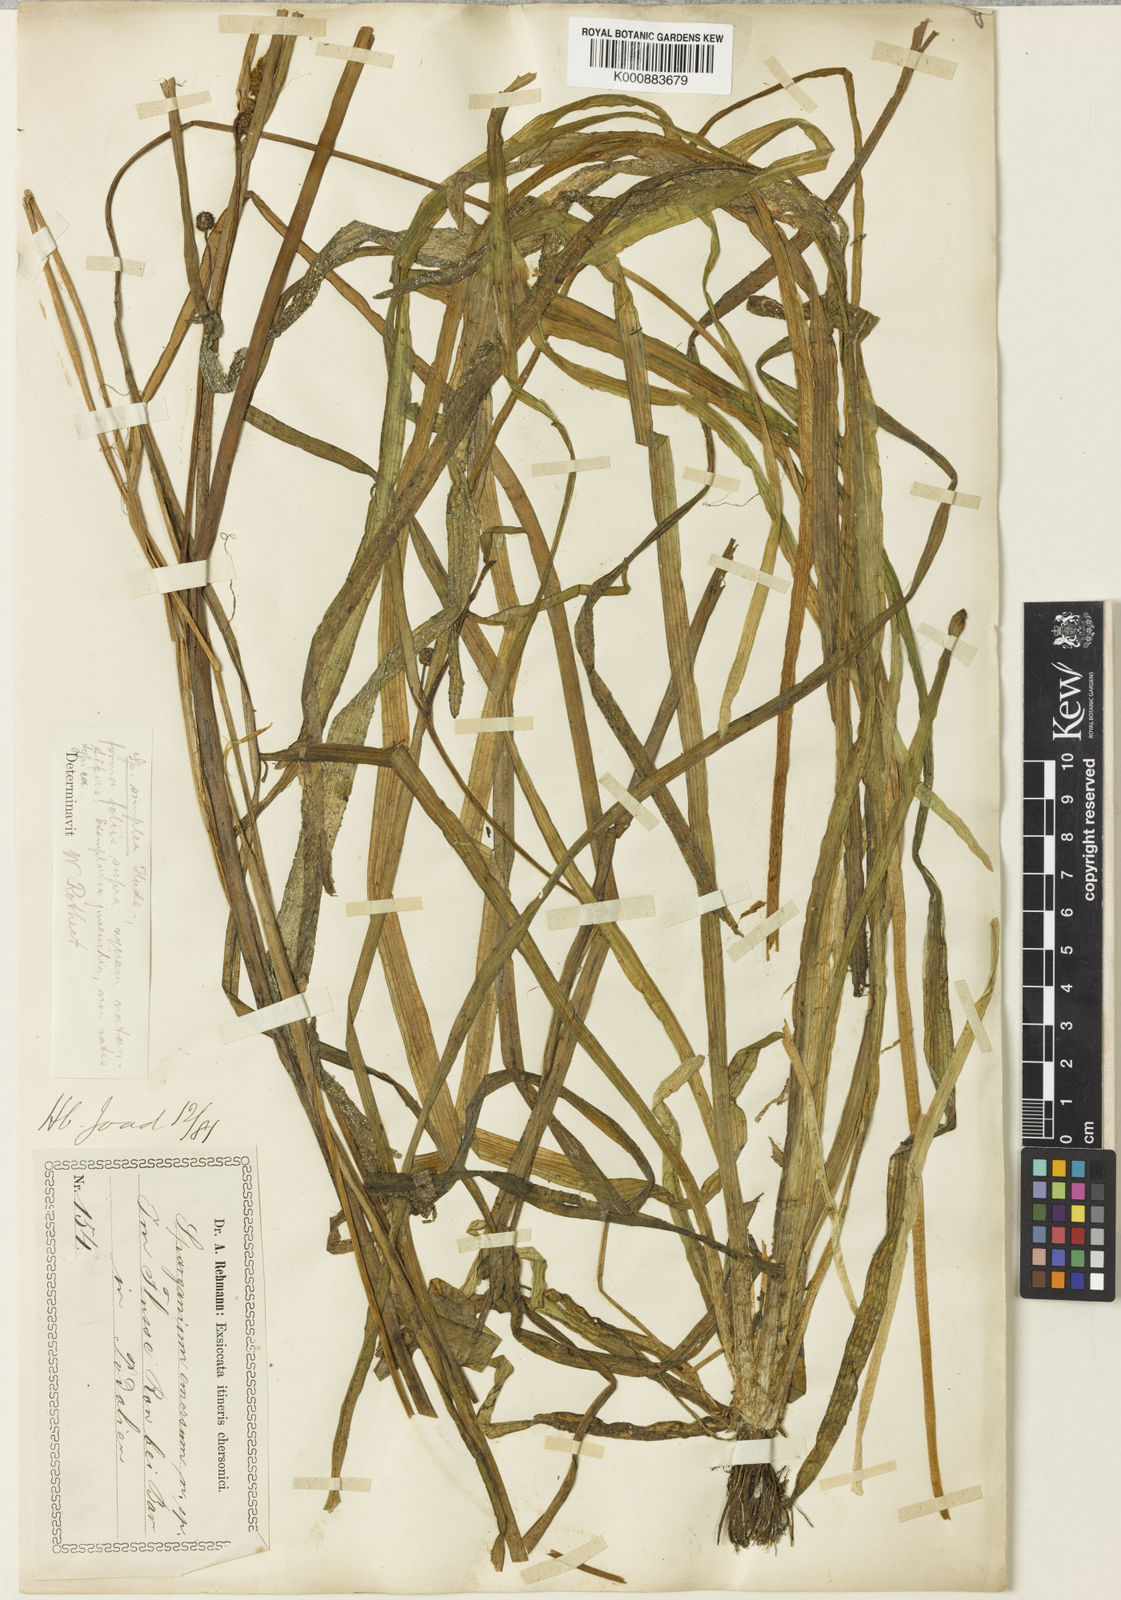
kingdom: Plantae
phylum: Tracheophyta
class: Liliopsida
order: Poales
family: Typhaceae
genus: Sparganium
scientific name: Sparganium emersum
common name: Unbranched bur-reed
